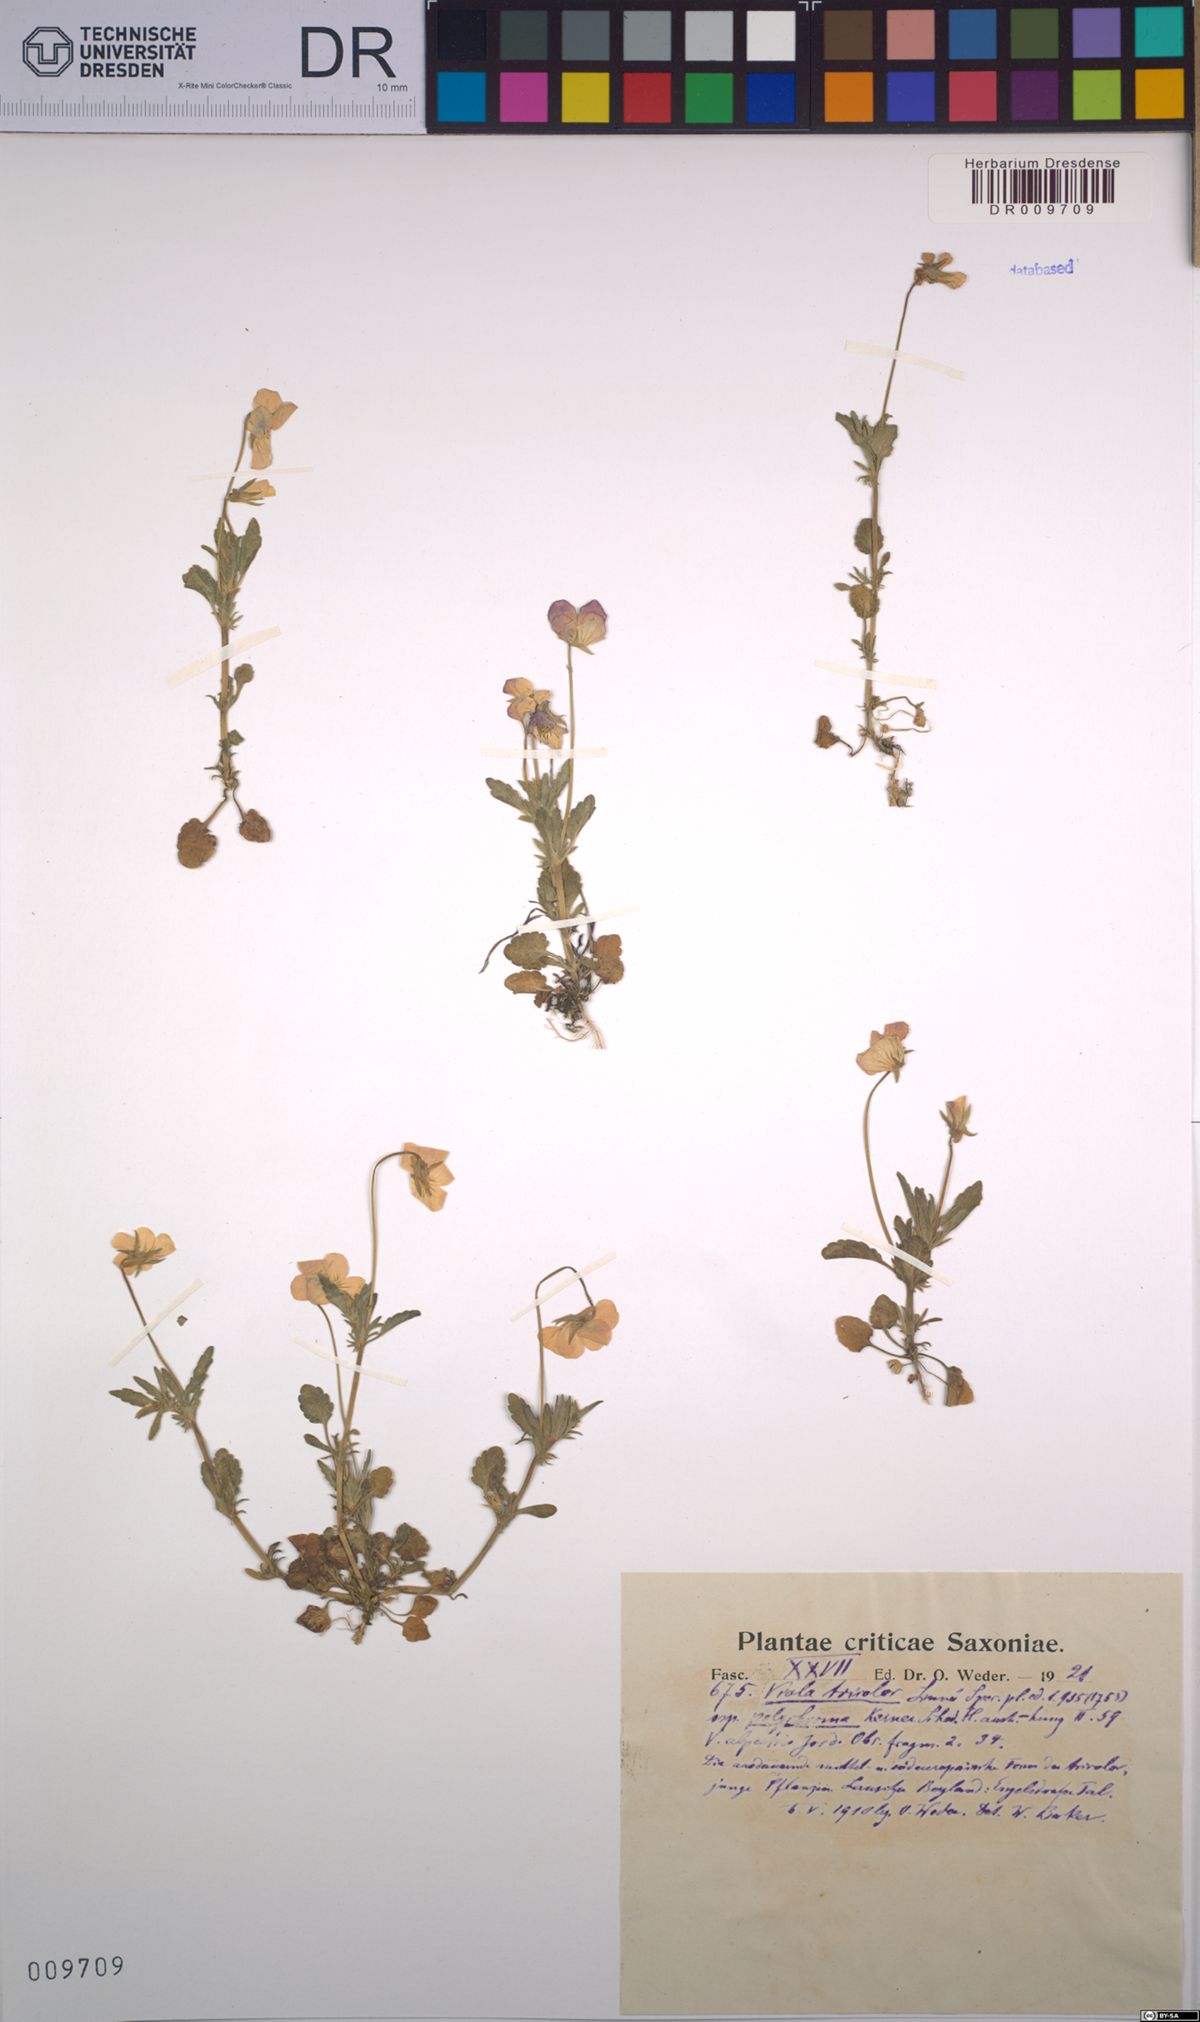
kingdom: Plantae
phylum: Tracheophyta
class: Magnoliopsida
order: Malpighiales
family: Violaceae
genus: Viola
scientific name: Viola tricolor
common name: Pansy
